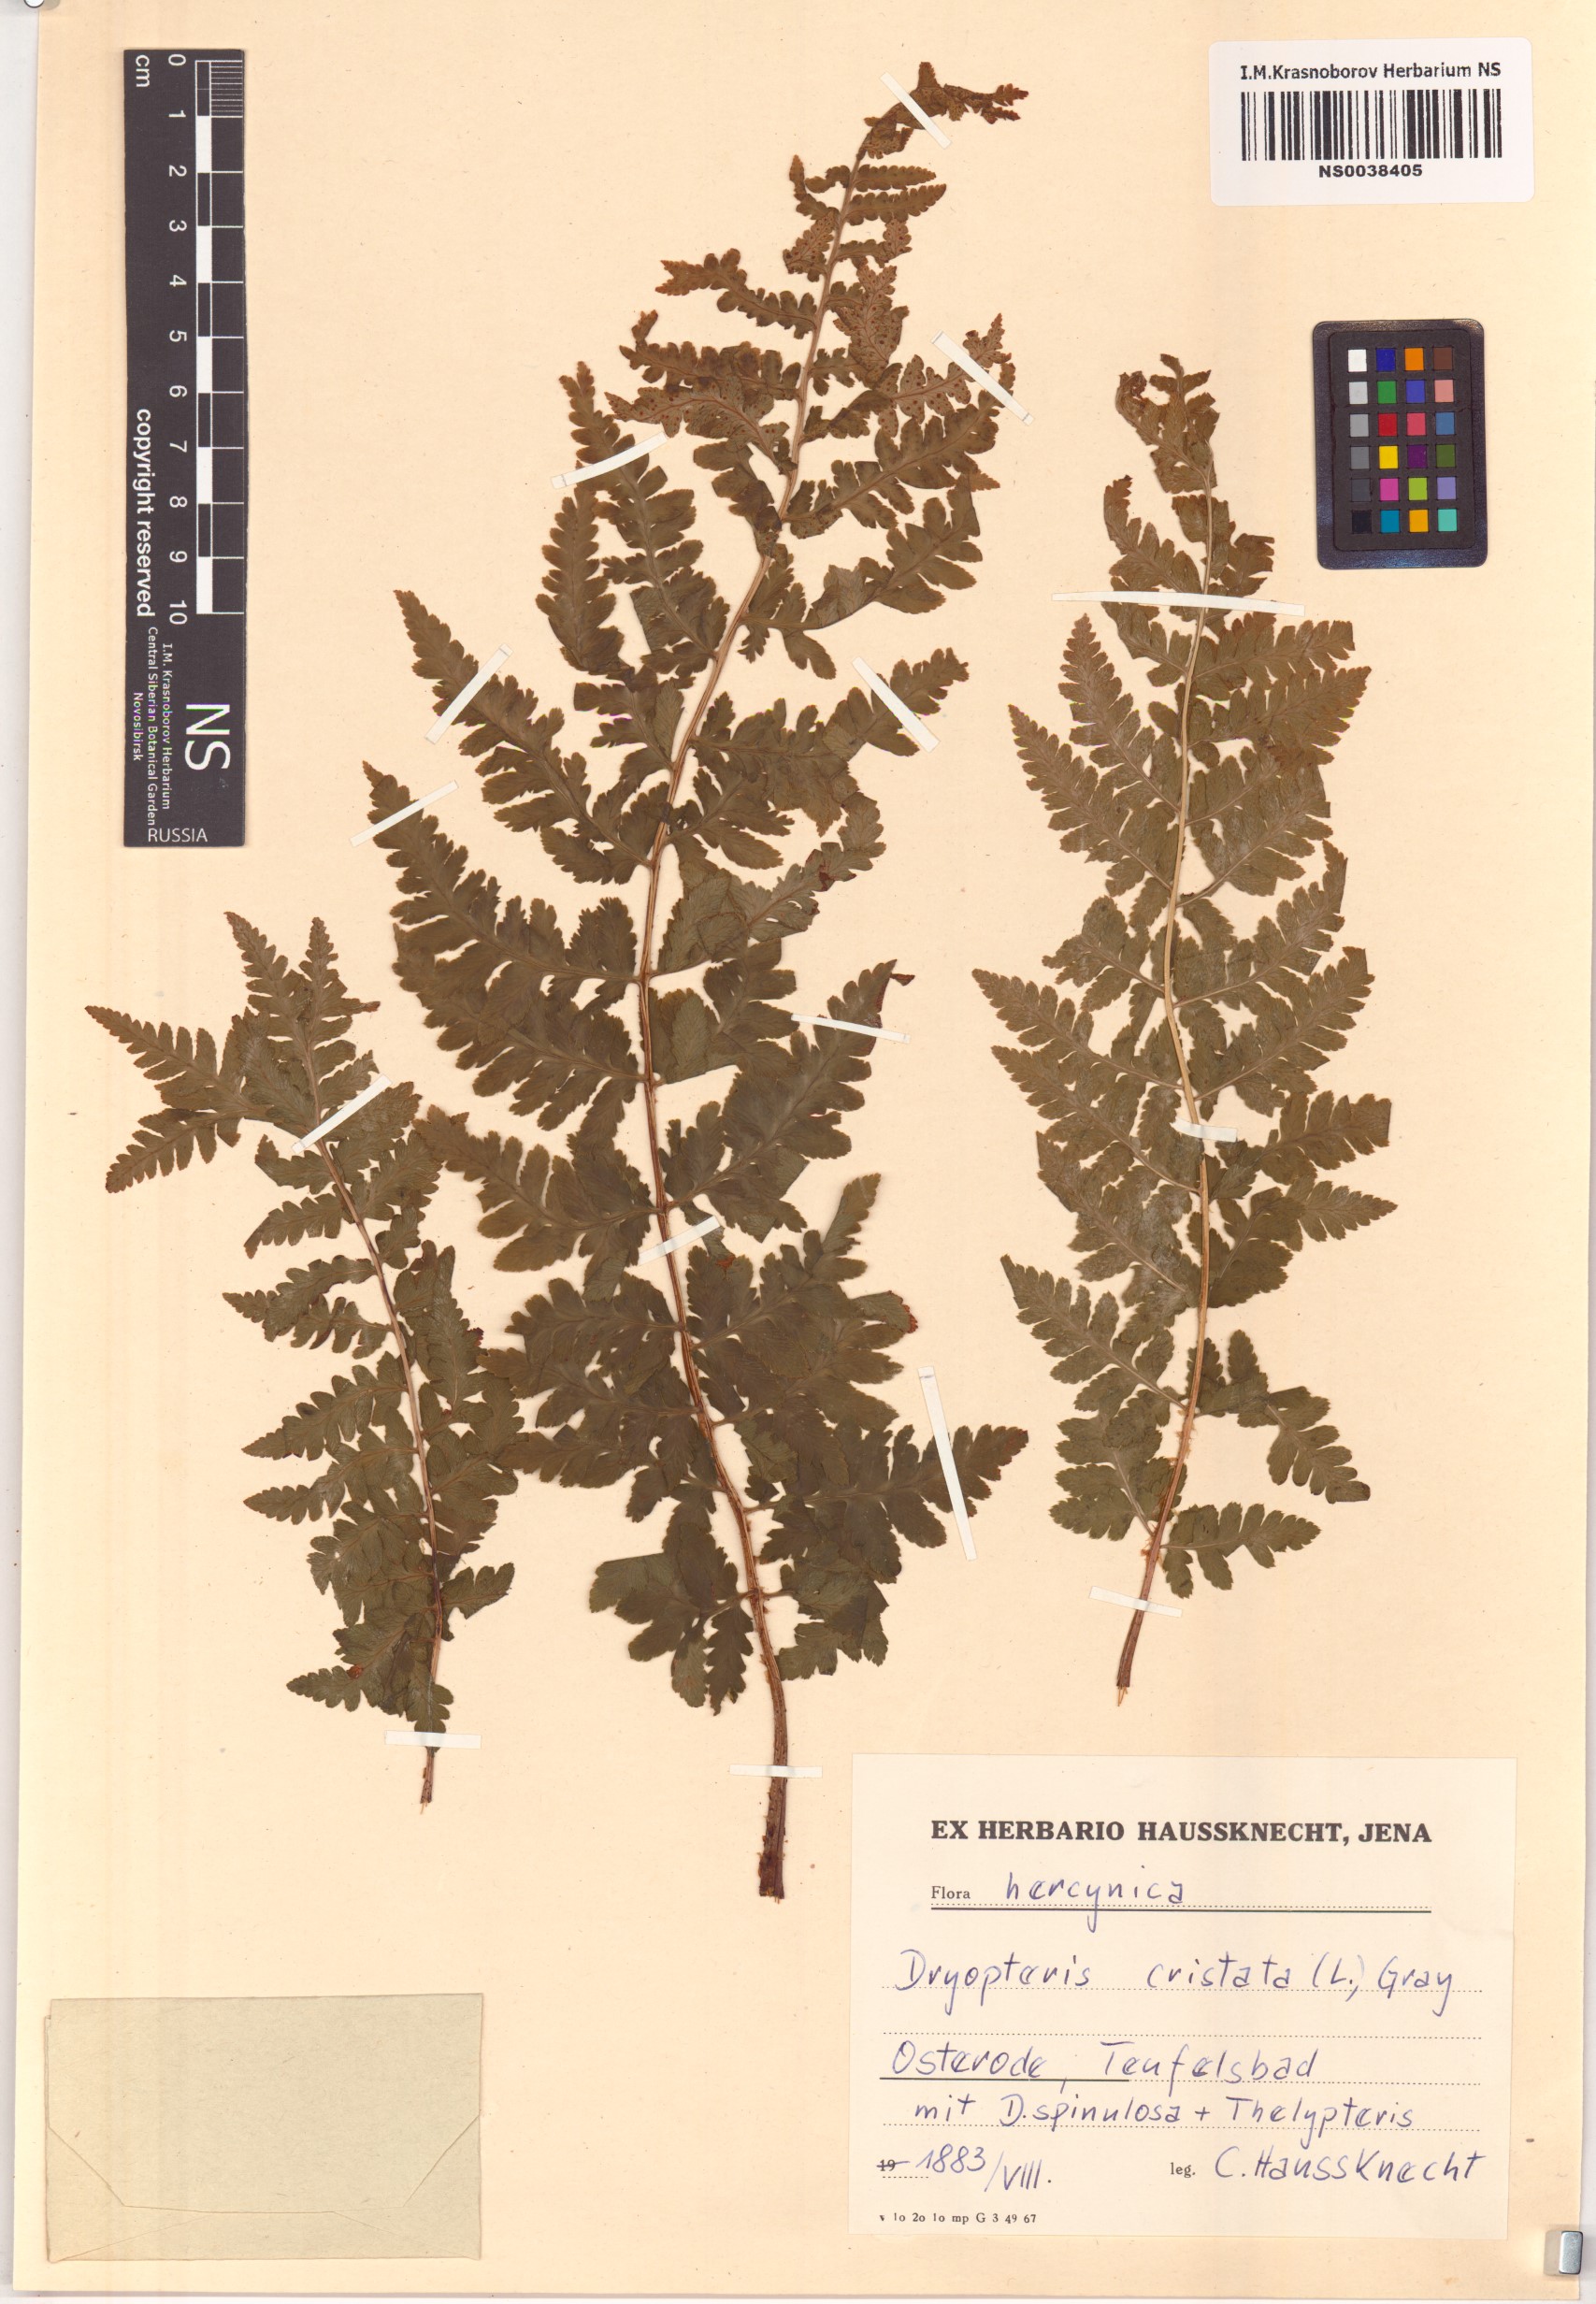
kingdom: Plantae
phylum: Tracheophyta
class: Polypodiopsida
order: Polypodiales
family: Dryopteridaceae
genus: Dryopteris
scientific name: Dryopteris cristata
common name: Crested wood fern
